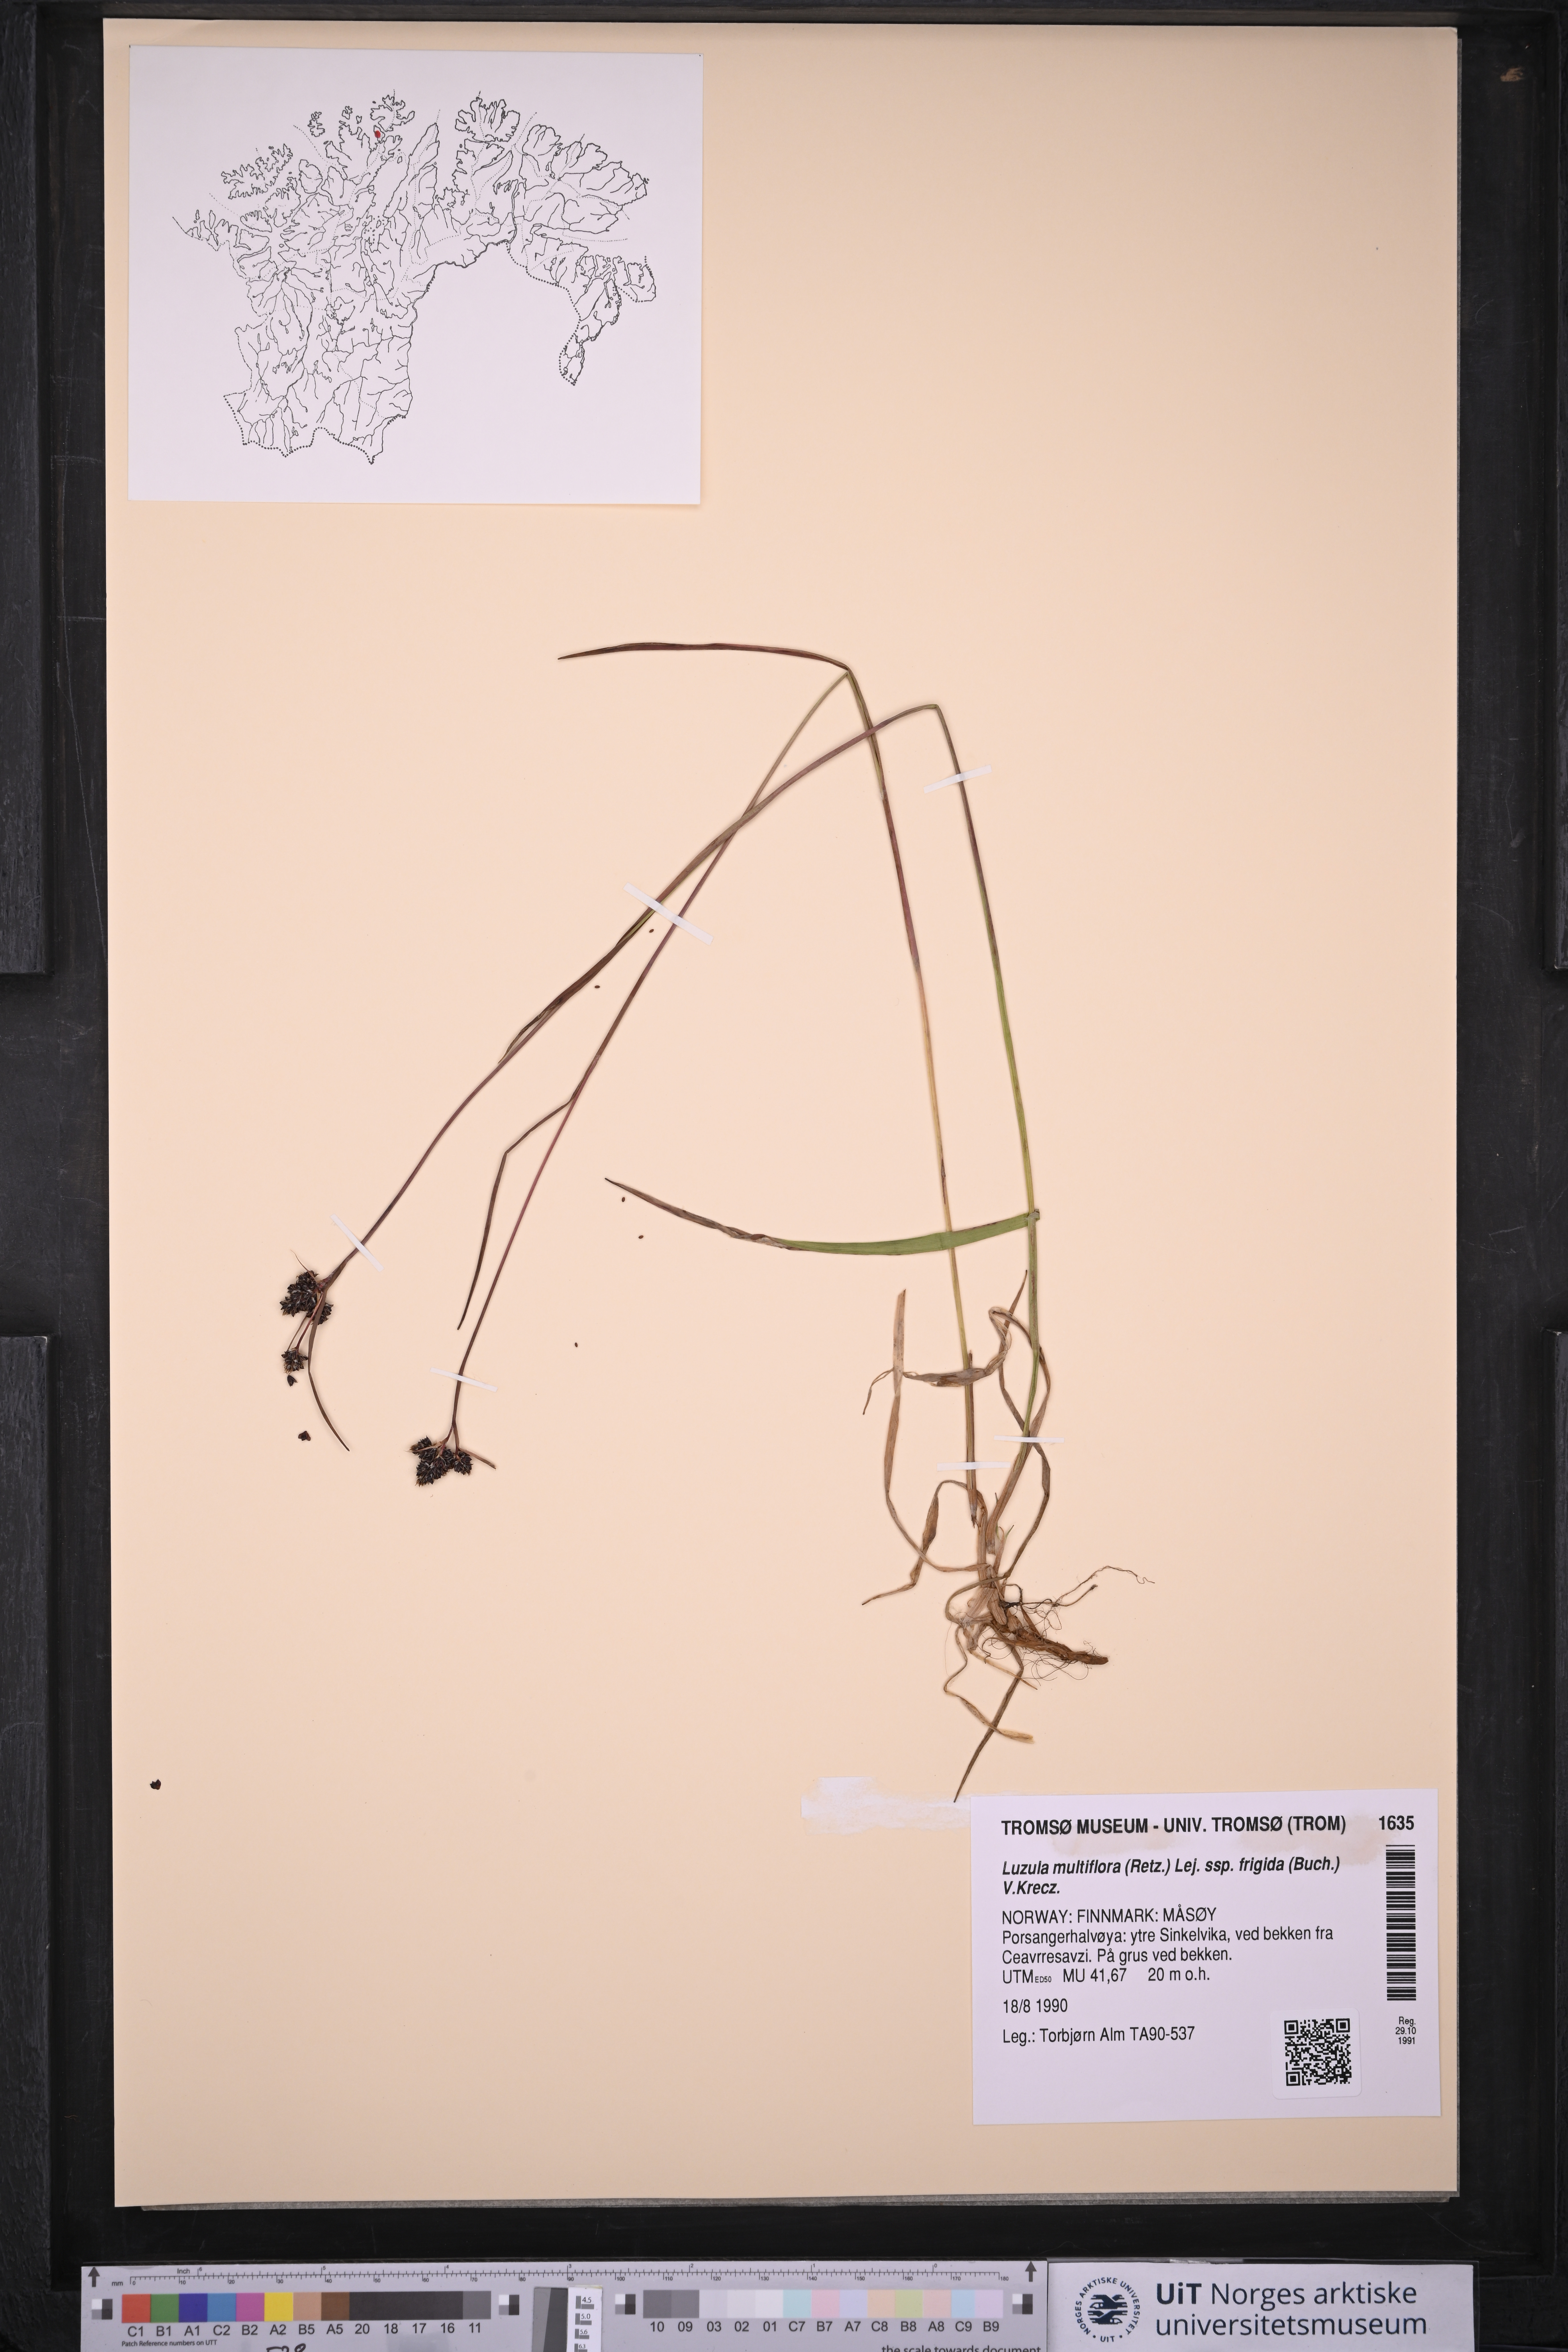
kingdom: Plantae
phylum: Tracheophyta
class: Liliopsida
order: Poales
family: Juncaceae
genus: Luzula
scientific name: Luzula multiflora
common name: Heath wood-rush
